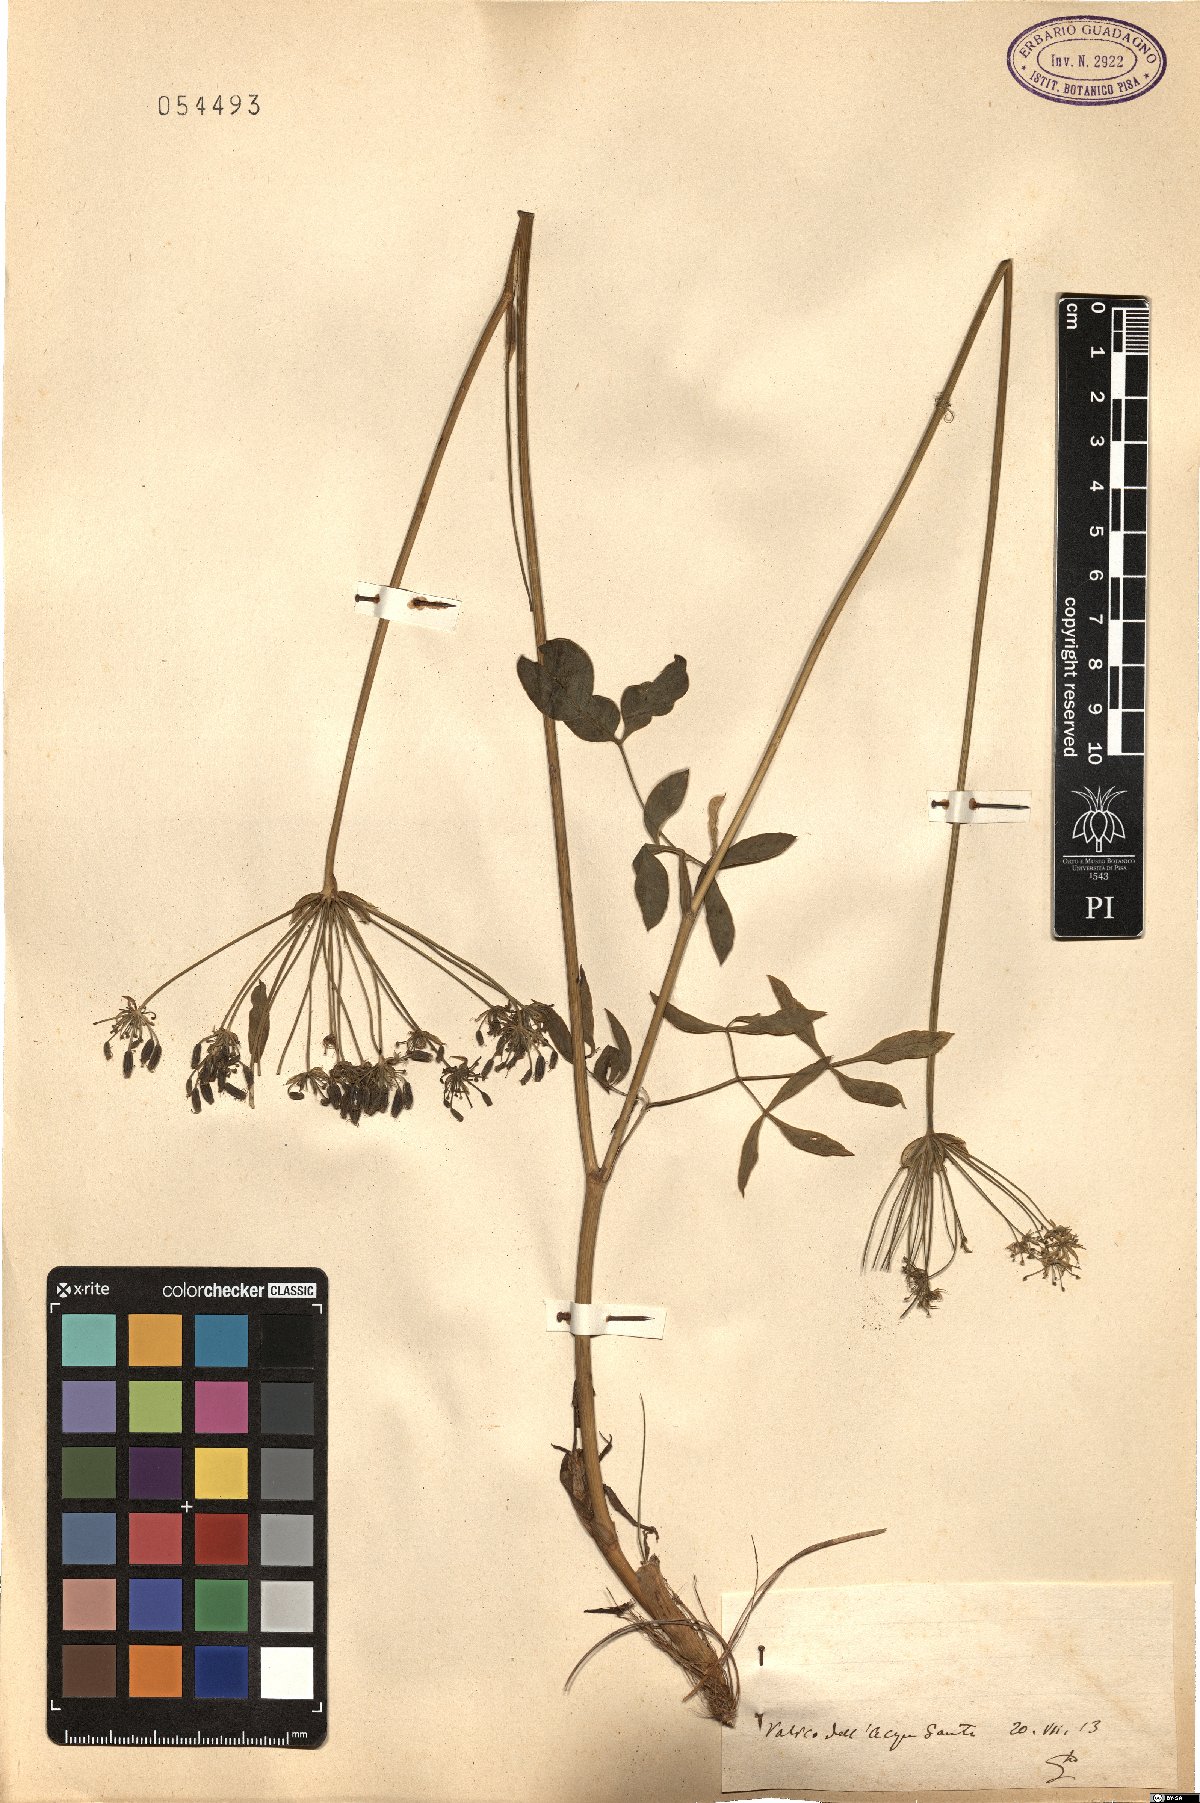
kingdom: Plantae
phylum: Tracheophyta
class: Magnoliopsida
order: Apiales
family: Apiaceae
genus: Laserpitium
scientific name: Laserpitium
